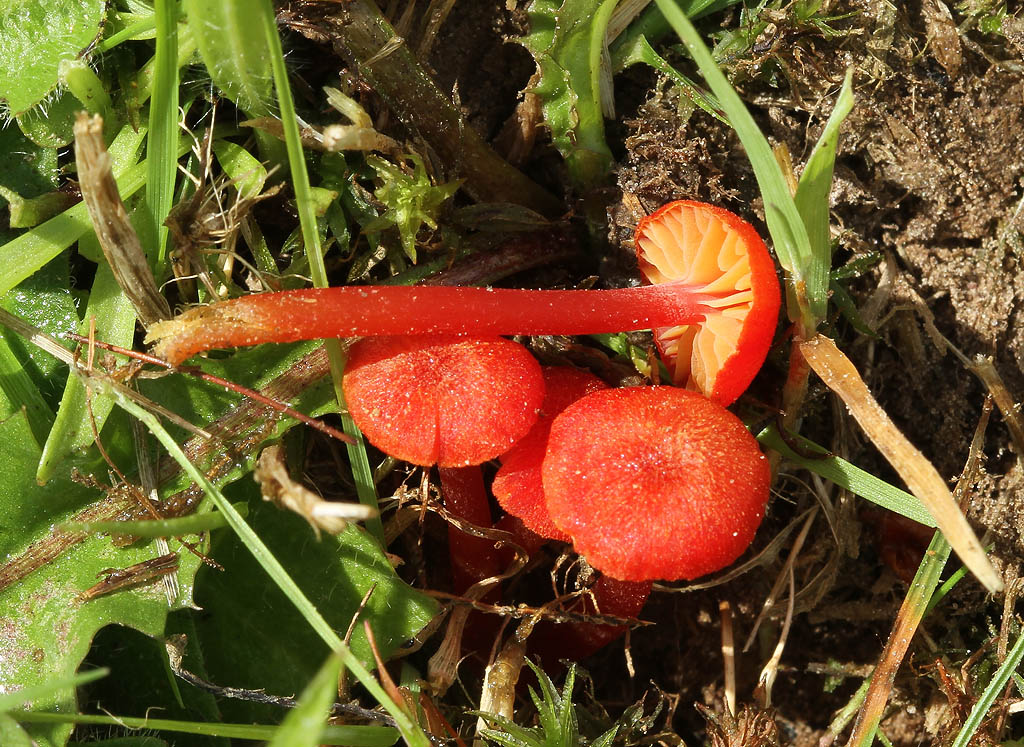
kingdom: Fungi
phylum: Basidiomycota
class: Agaricomycetes
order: Agaricales
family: Hygrophoraceae
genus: Hygrocybe
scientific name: Hygrocybe helobia
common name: hvidløgs-vokshat
